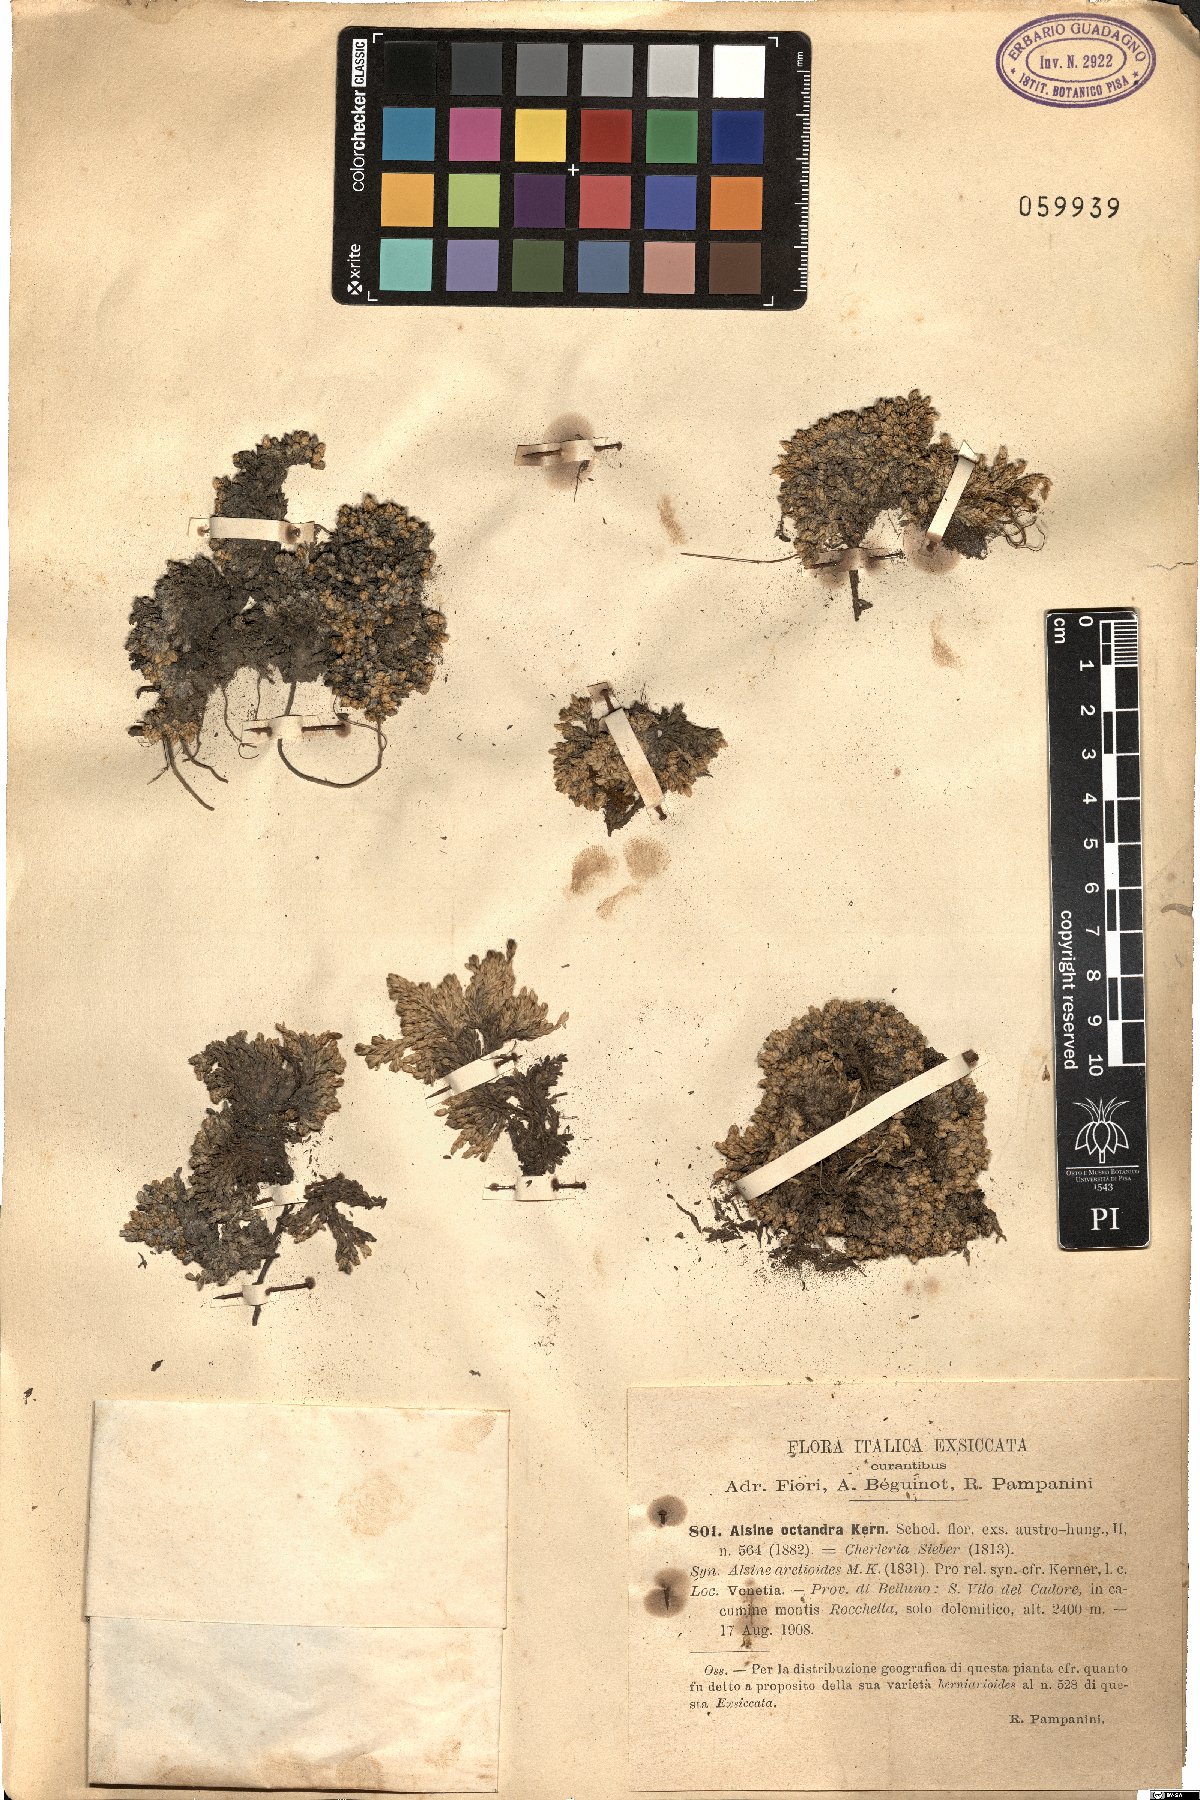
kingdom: Plantae
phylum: Tracheophyta
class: Magnoliopsida
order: Caryophyllales
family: Caryophyllaceae
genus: Facchinia
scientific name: Facchinia cherlerioides
